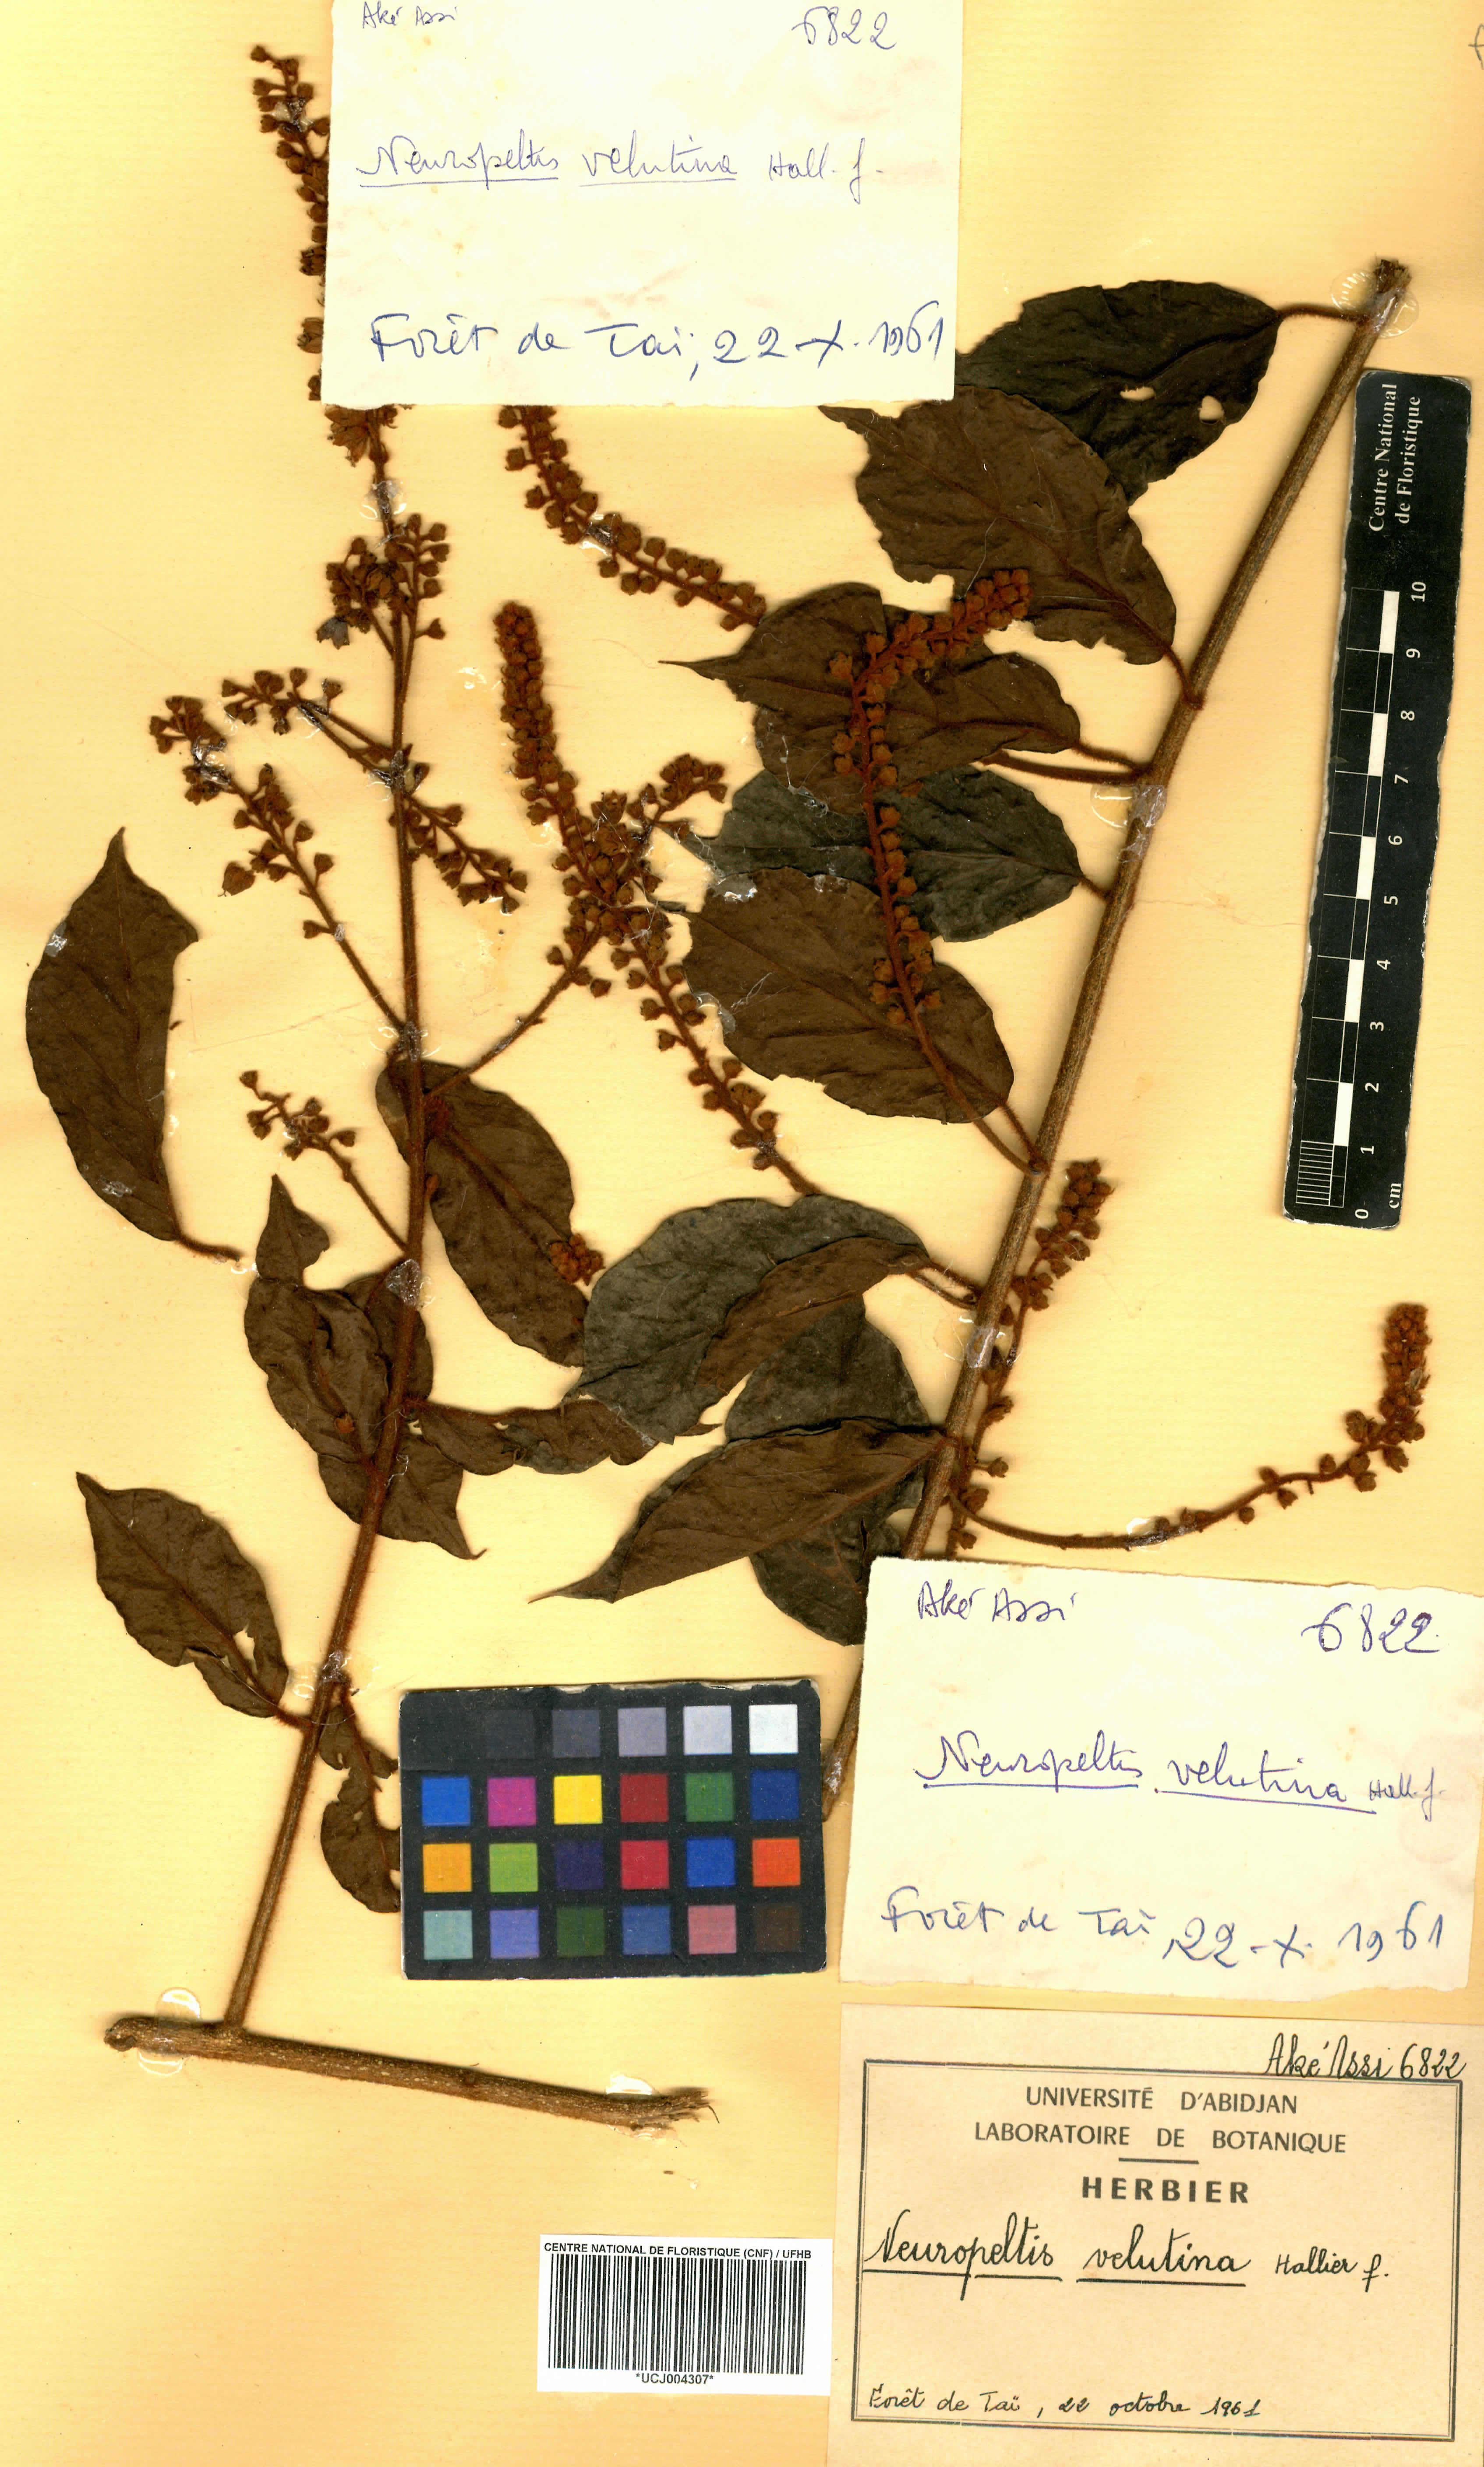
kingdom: Plantae
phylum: Tracheophyta
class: Magnoliopsida
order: Solanales
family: Convolvulaceae
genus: Neuropeltis
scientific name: Neuropeltis velutina
